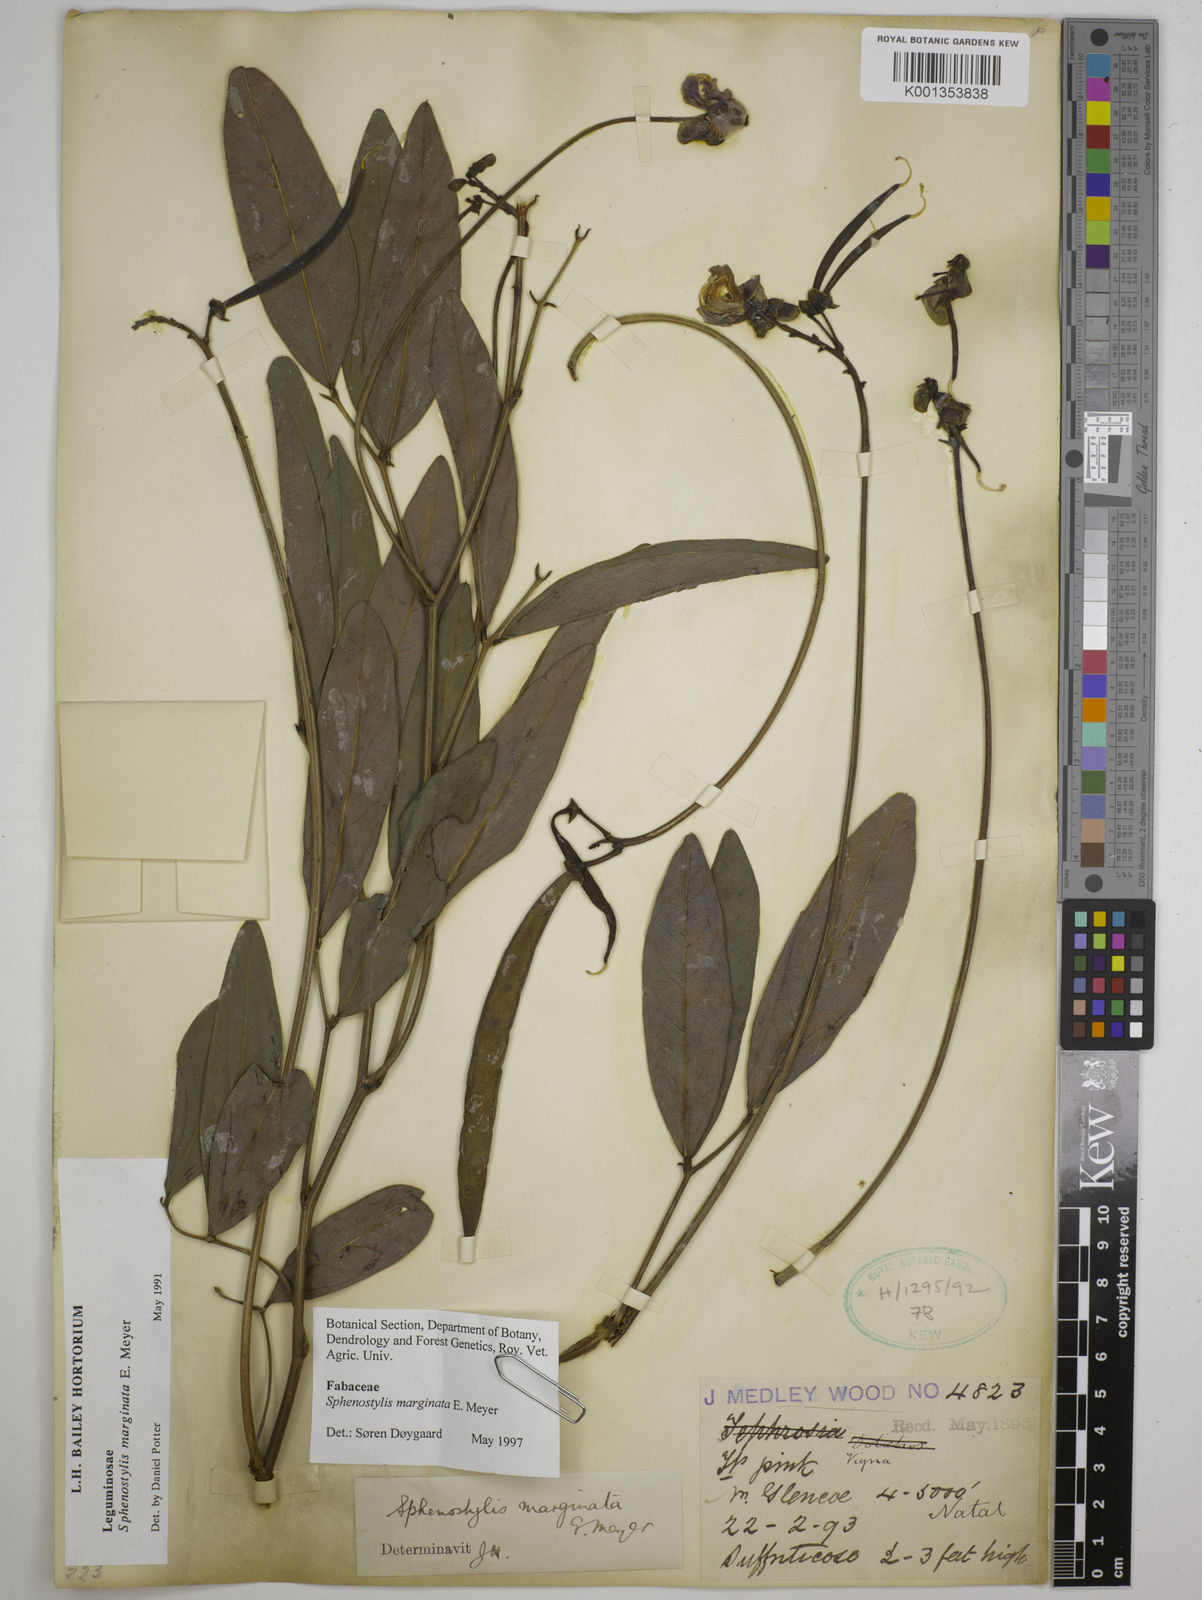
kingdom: Plantae
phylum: Tracheophyta
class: Magnoliopsida
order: Fabales
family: Fabaceae
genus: Sphenostylis
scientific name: Sphenostylis marginata
